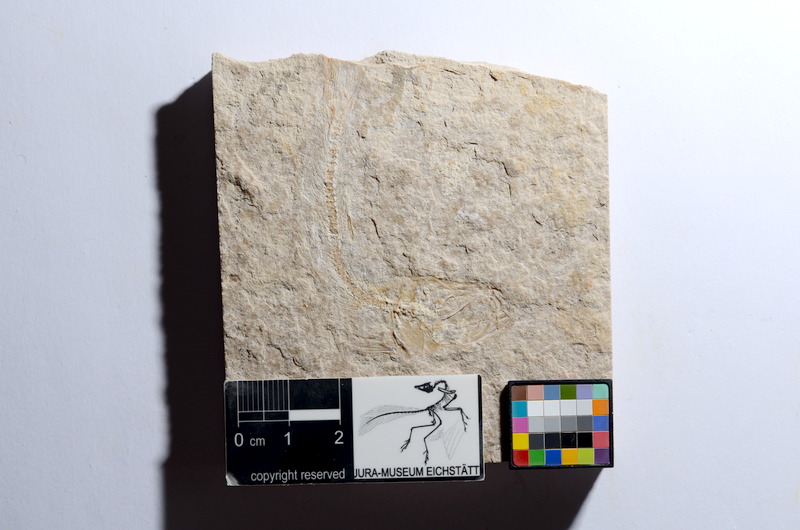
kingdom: Animalia
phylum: Chordata
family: Ascalaboidae
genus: Tharsis
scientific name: Tharsis dubius
